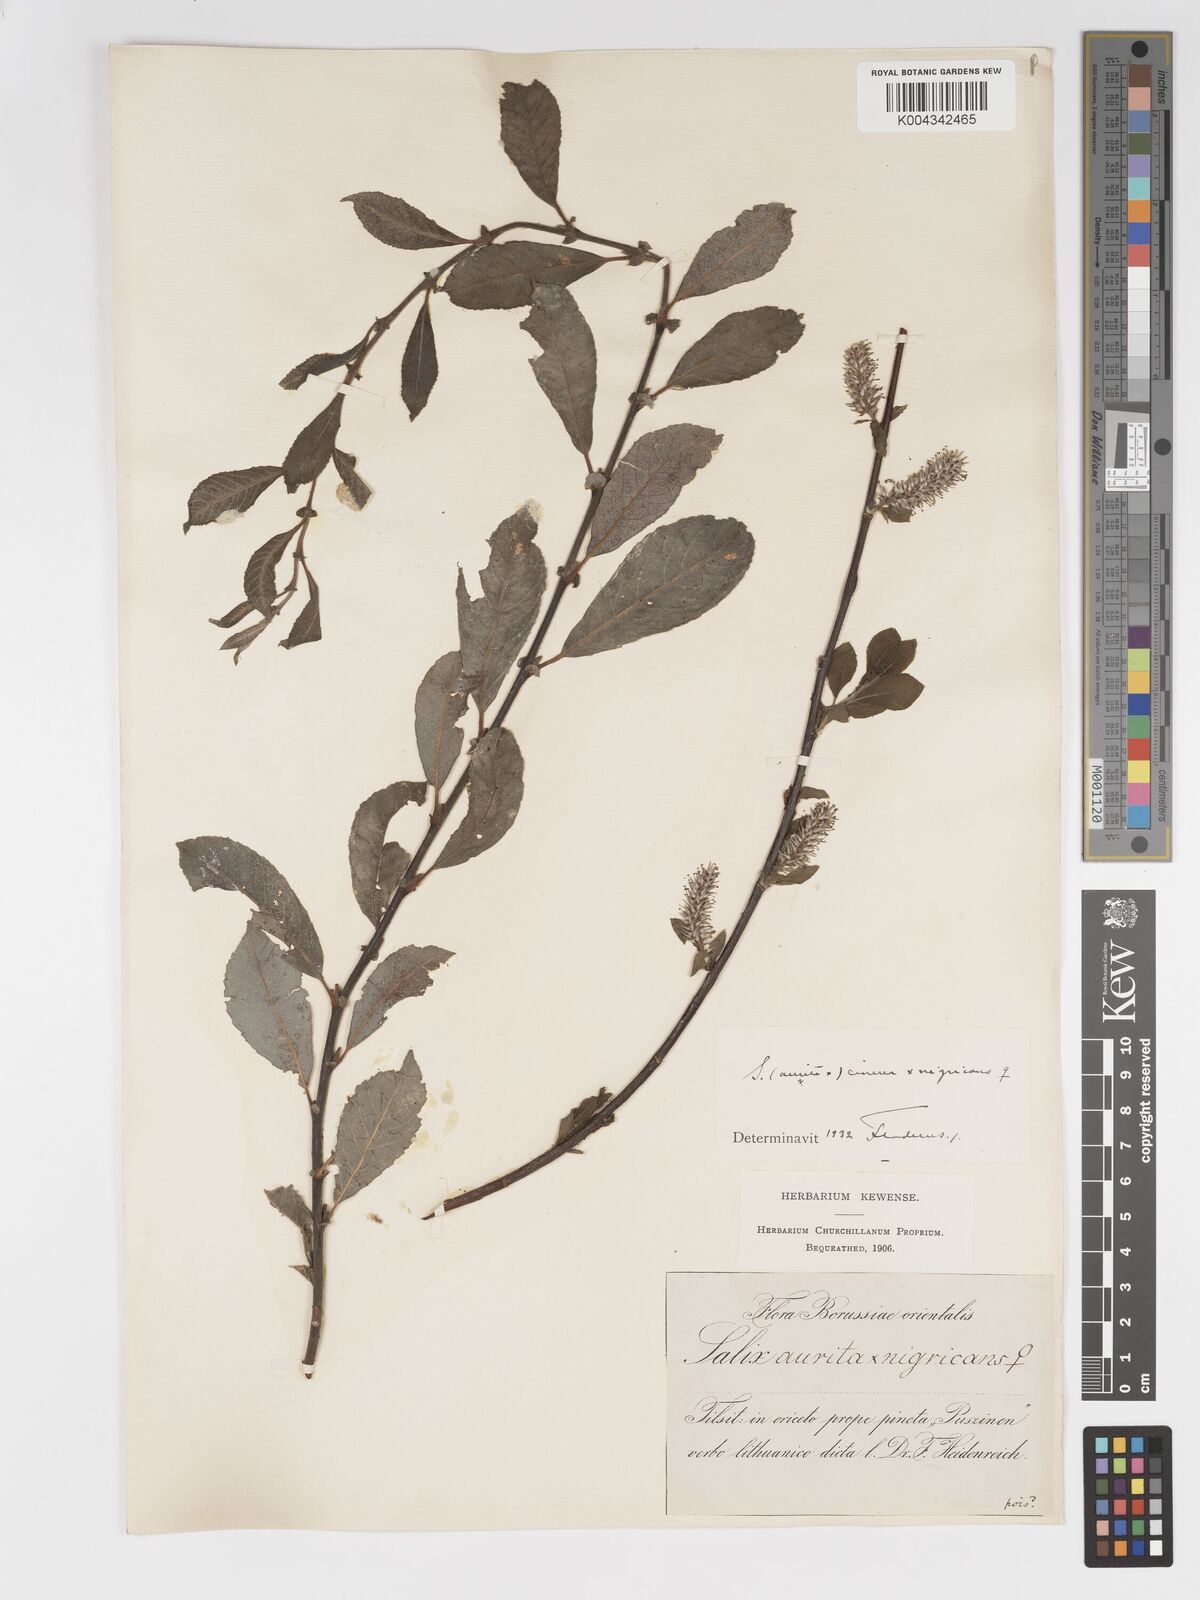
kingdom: Plantae
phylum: Tracheophyta
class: Magnoliopsida
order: Malpighiales
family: Salicaceae
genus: Salix
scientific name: Salix
